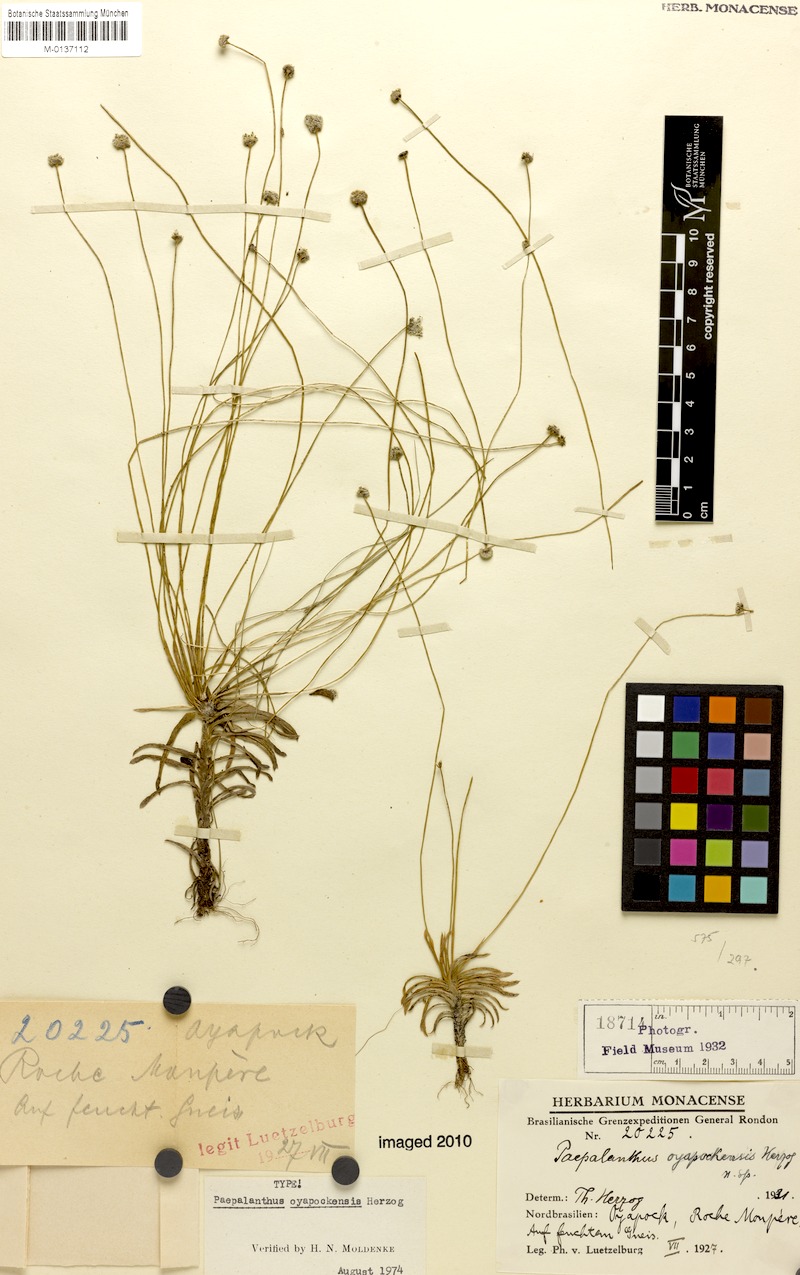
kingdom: Plantae
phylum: Tracheophyta
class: Liliopsida
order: Poales
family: Eriocaulaceae
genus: Paepalanthus
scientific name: Paepalanthus oyapockensis
